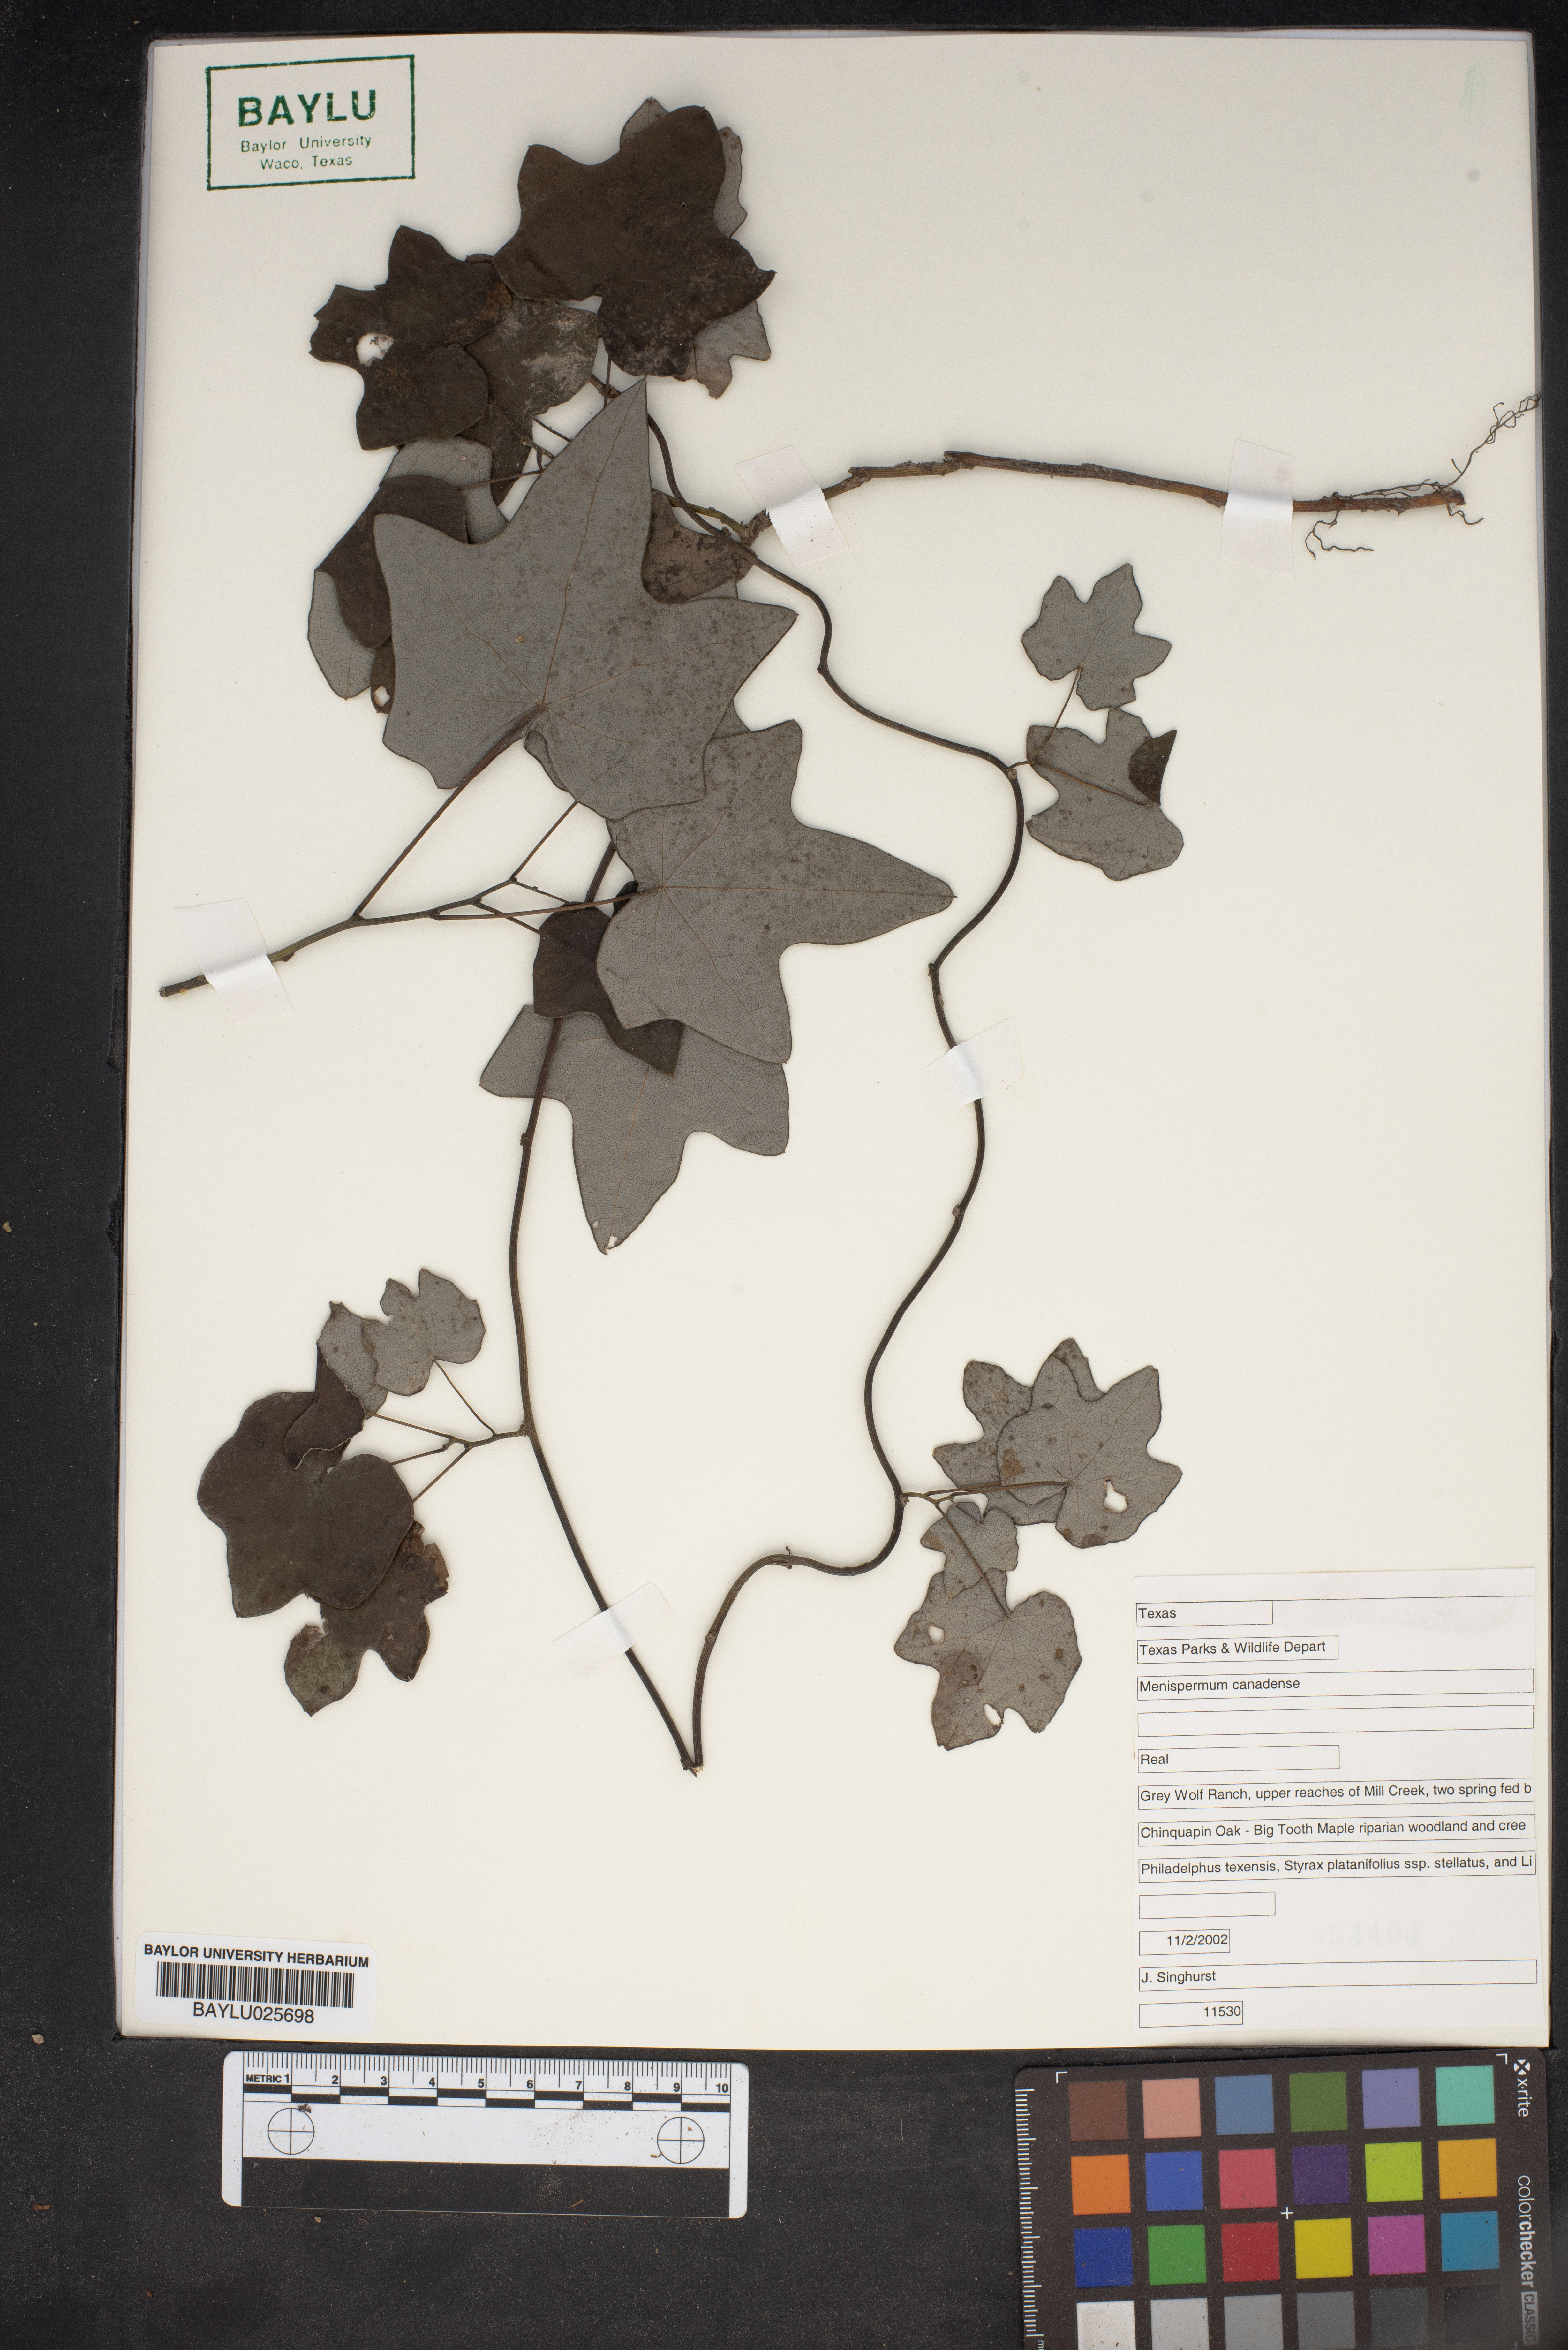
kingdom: Plantae
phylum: Tracheophyta
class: Magnoliopsida
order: Ranunculales
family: Menispermaceae
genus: Menispermum
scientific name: Menispermum canadense
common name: Moonseed
